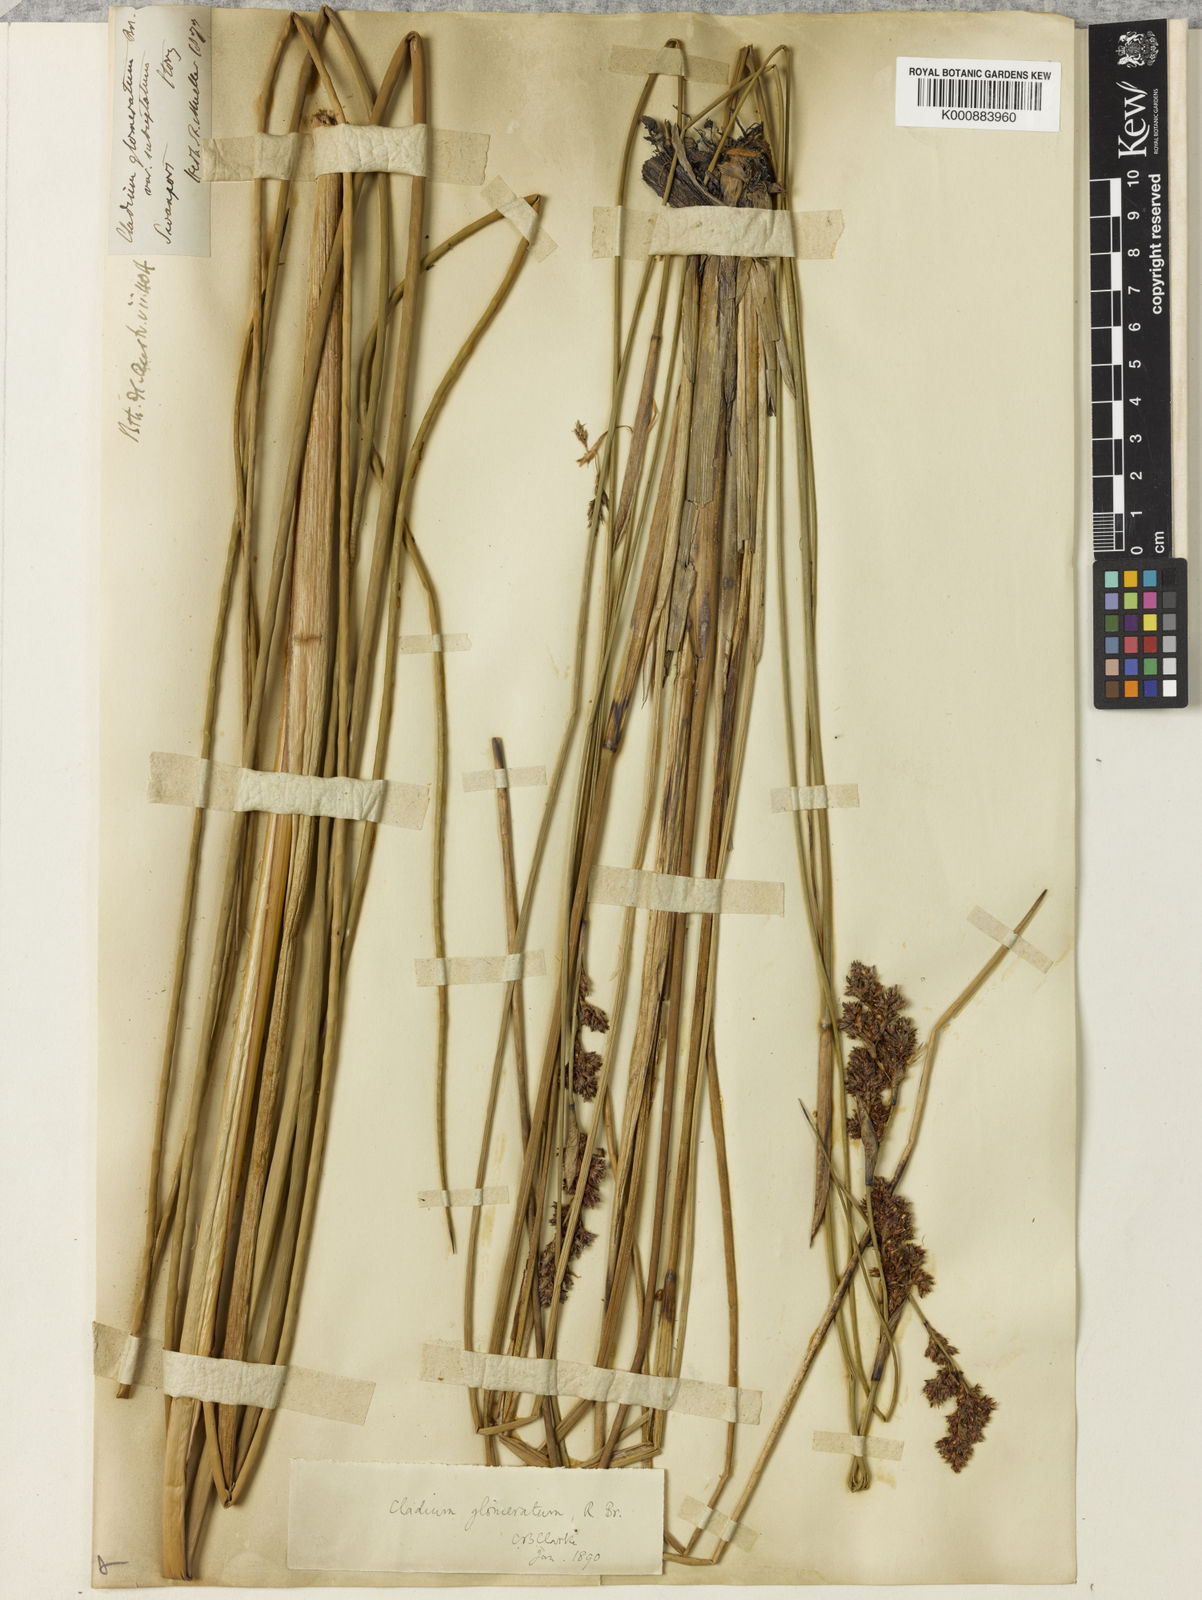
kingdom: Plantae
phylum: Tracheophyta
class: Liliopsida
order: Poales
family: Cyperaceae
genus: Machaerina
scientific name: Machaerina rubiginosa
